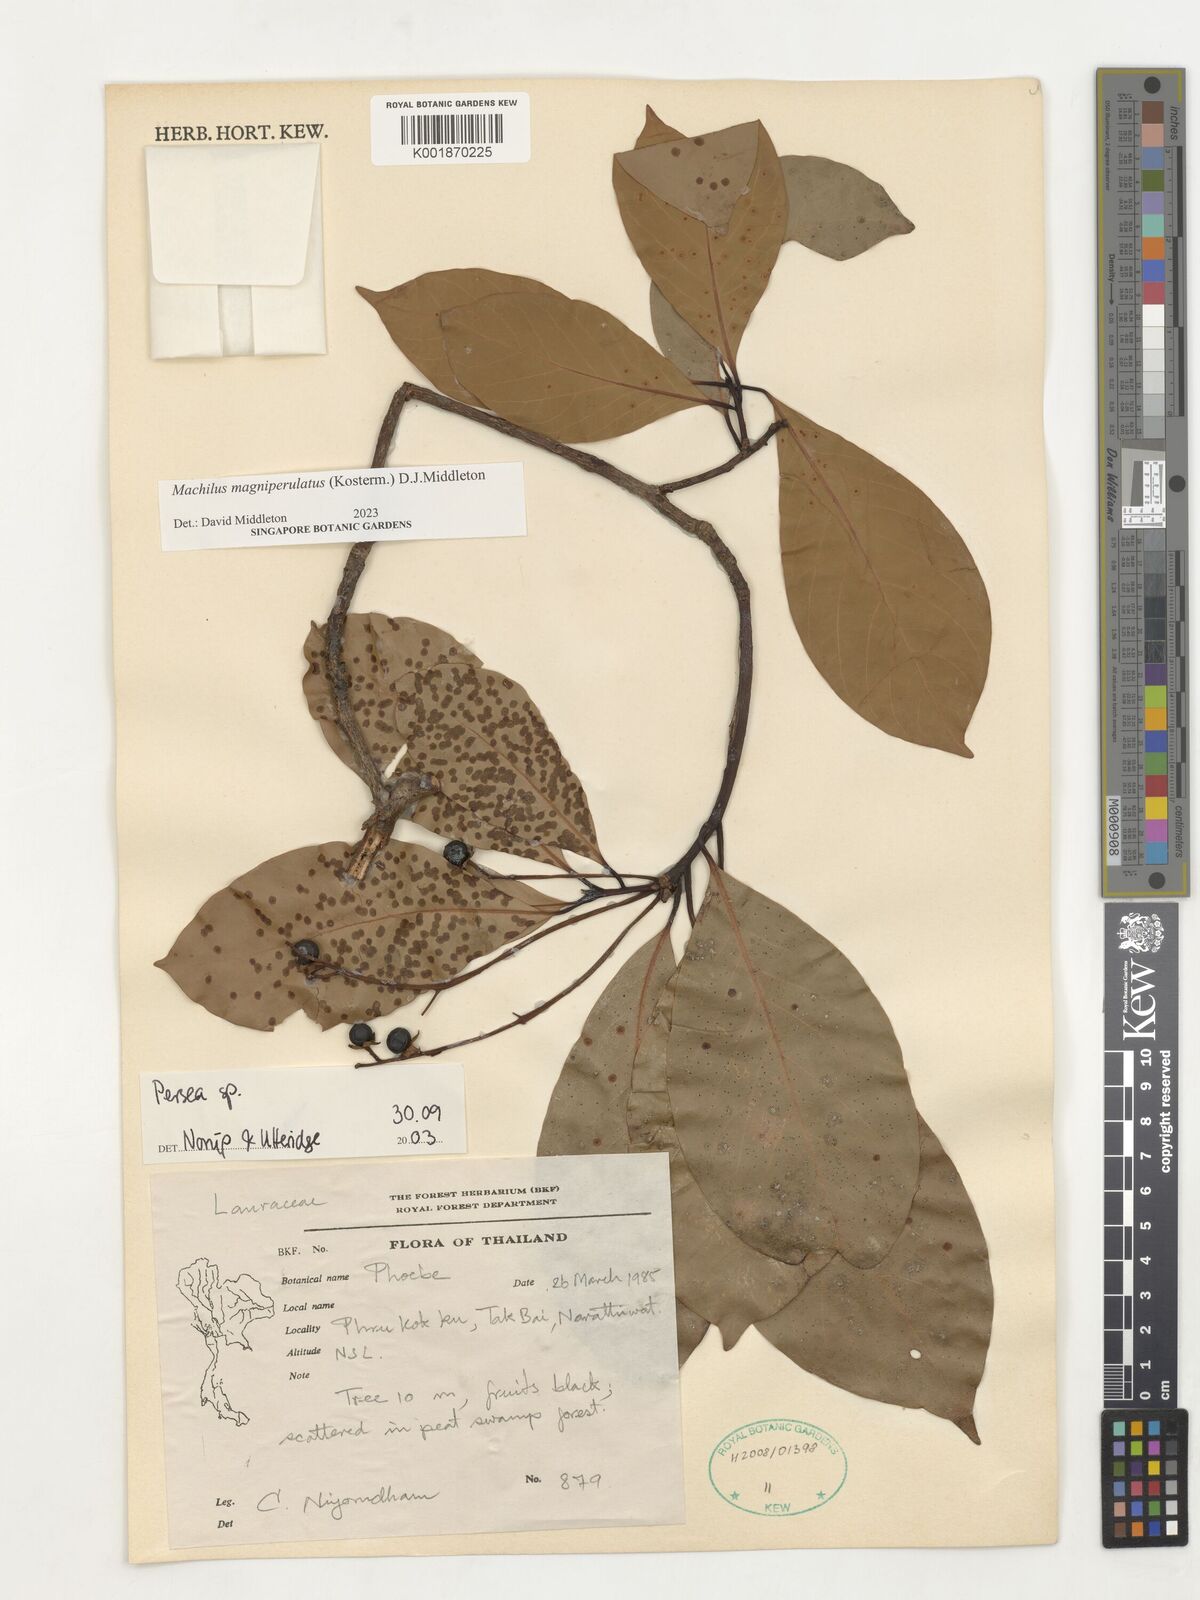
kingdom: Plantae
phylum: Tracheophyta
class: Magnoliopsida
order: Laurales
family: Lauraceae
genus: Persea
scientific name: Persea
